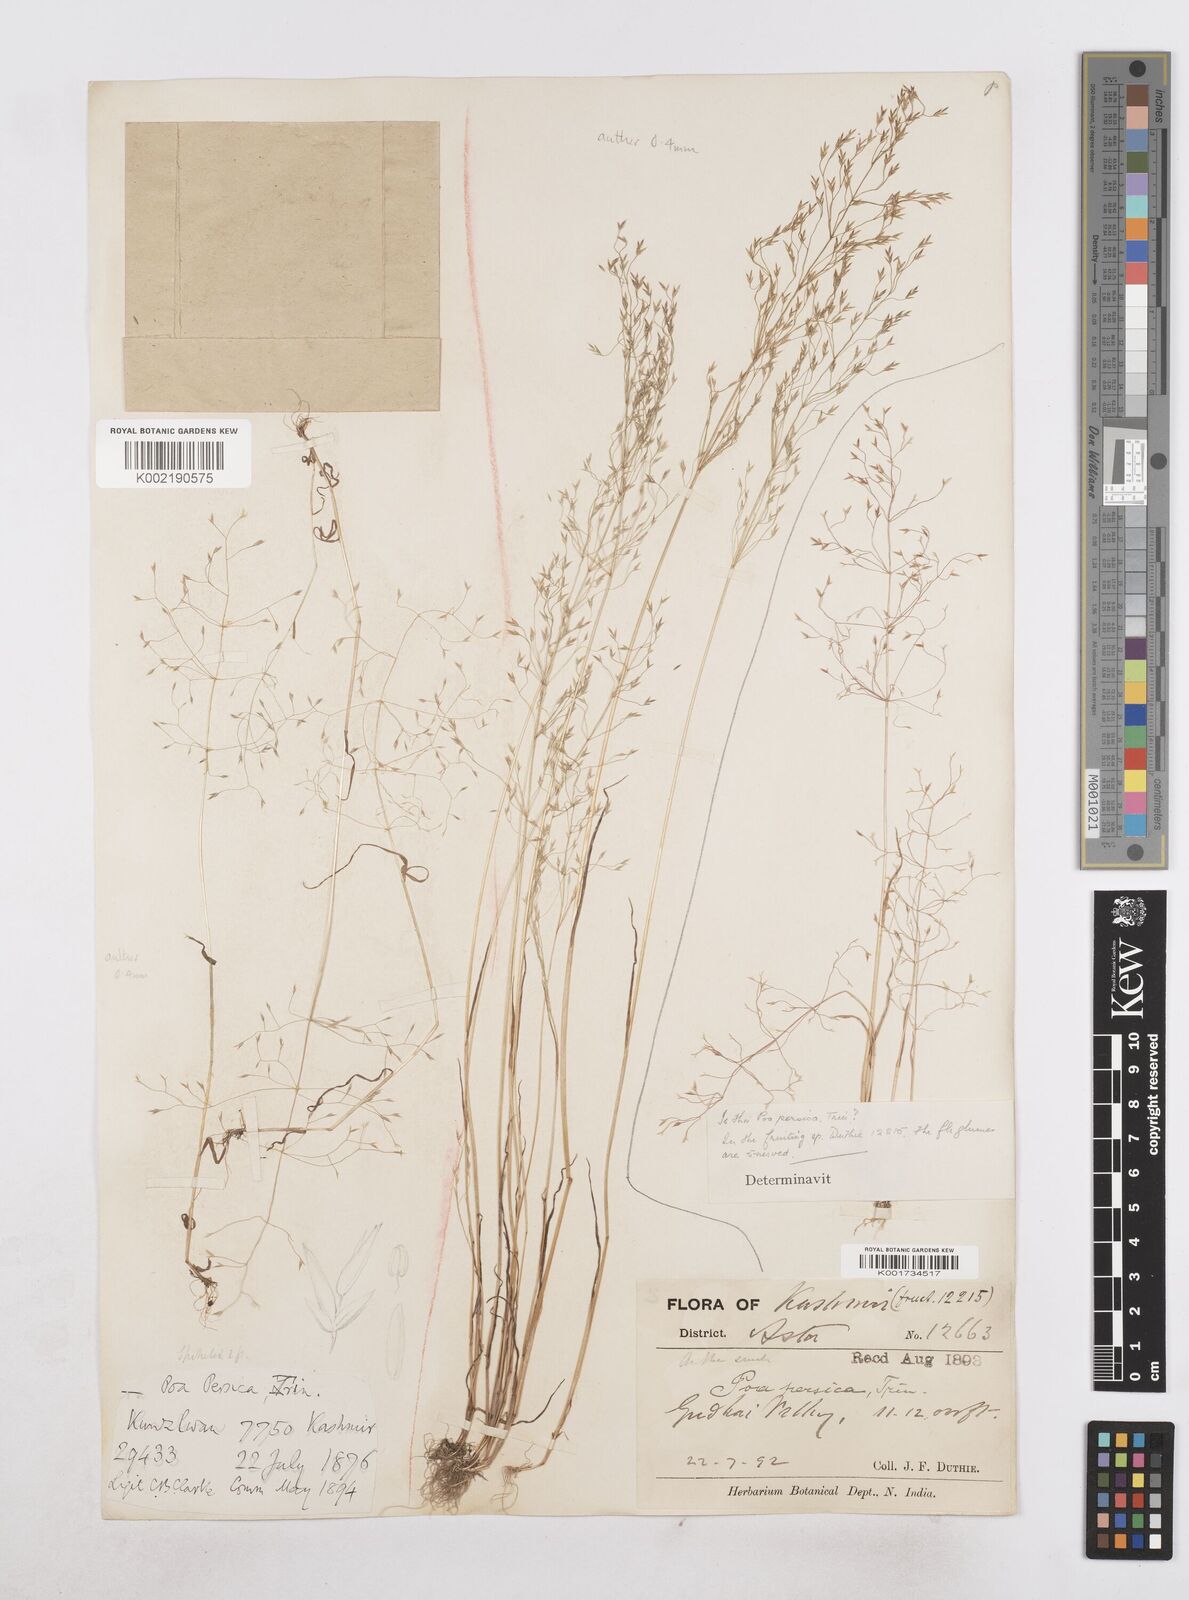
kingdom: Plantae
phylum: Tracheophyta
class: Liliopsida
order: Poales
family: Poaceae
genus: Poa
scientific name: Poa diaphora
